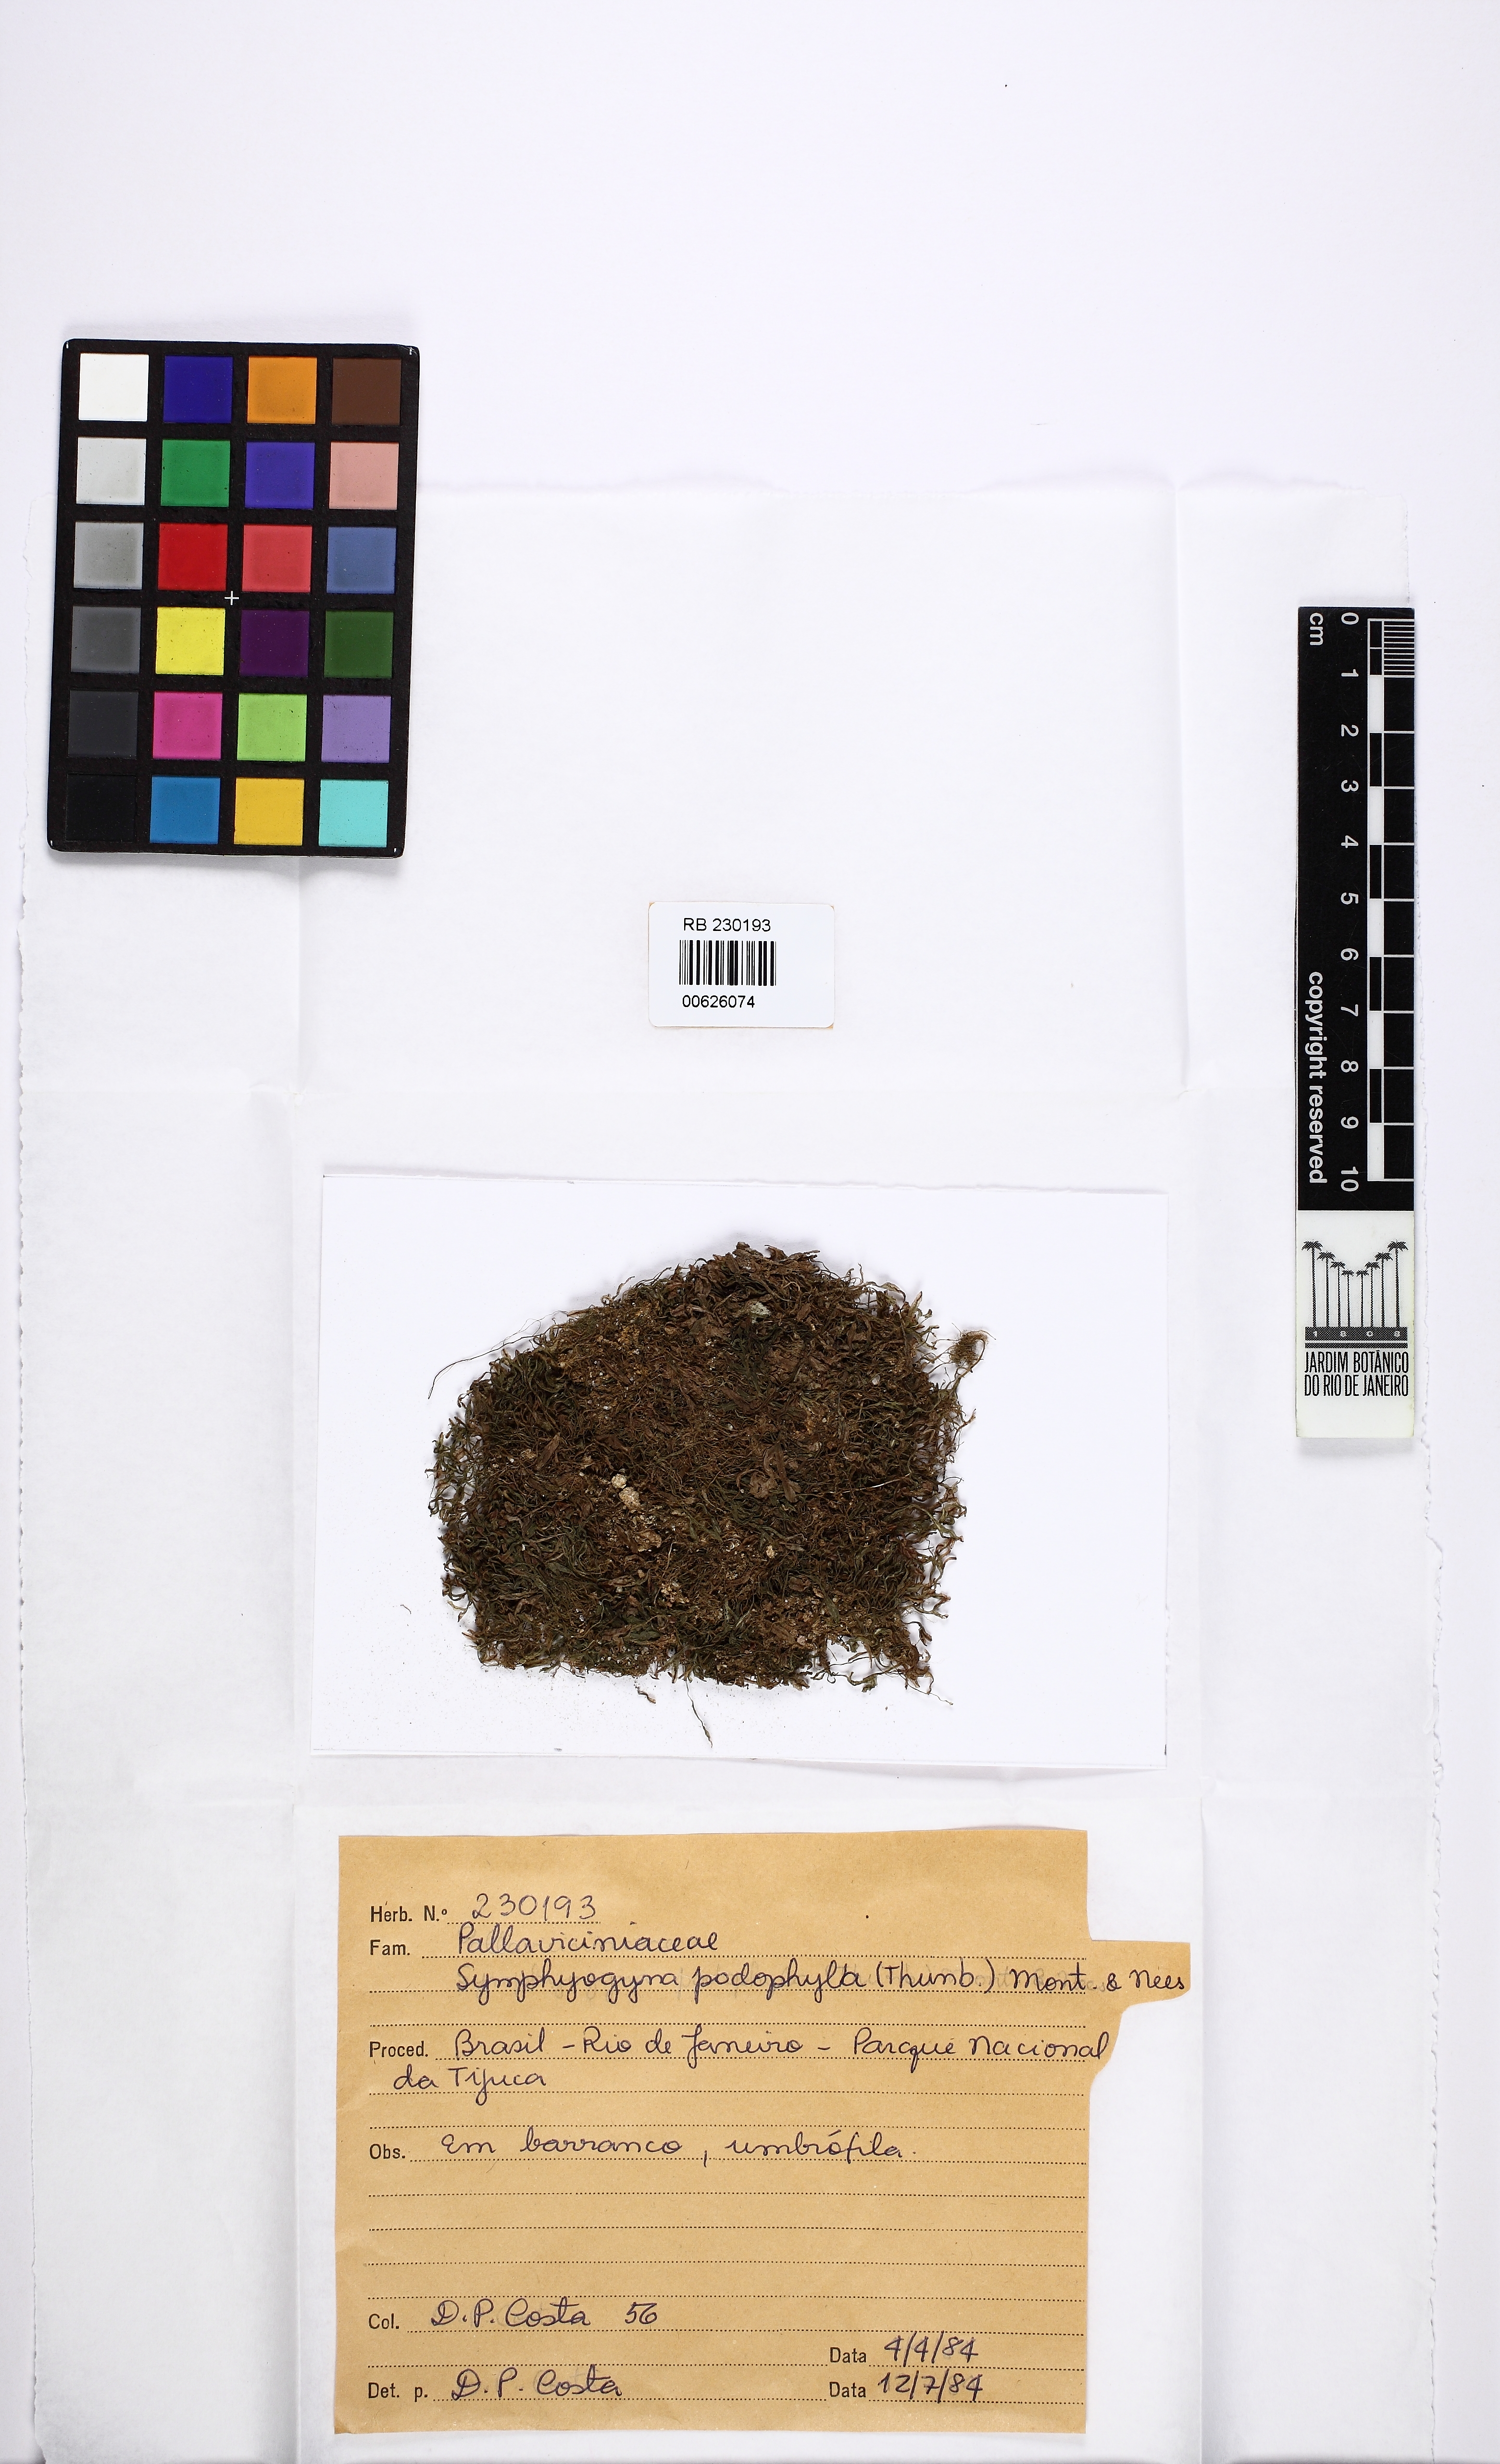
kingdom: Plantae
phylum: Marchantiophyta
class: Jungermanniopsida
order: Pallaviciniales
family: Pallaviciniaceae
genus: Symphyogyna
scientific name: Symphyogyna podophylla
